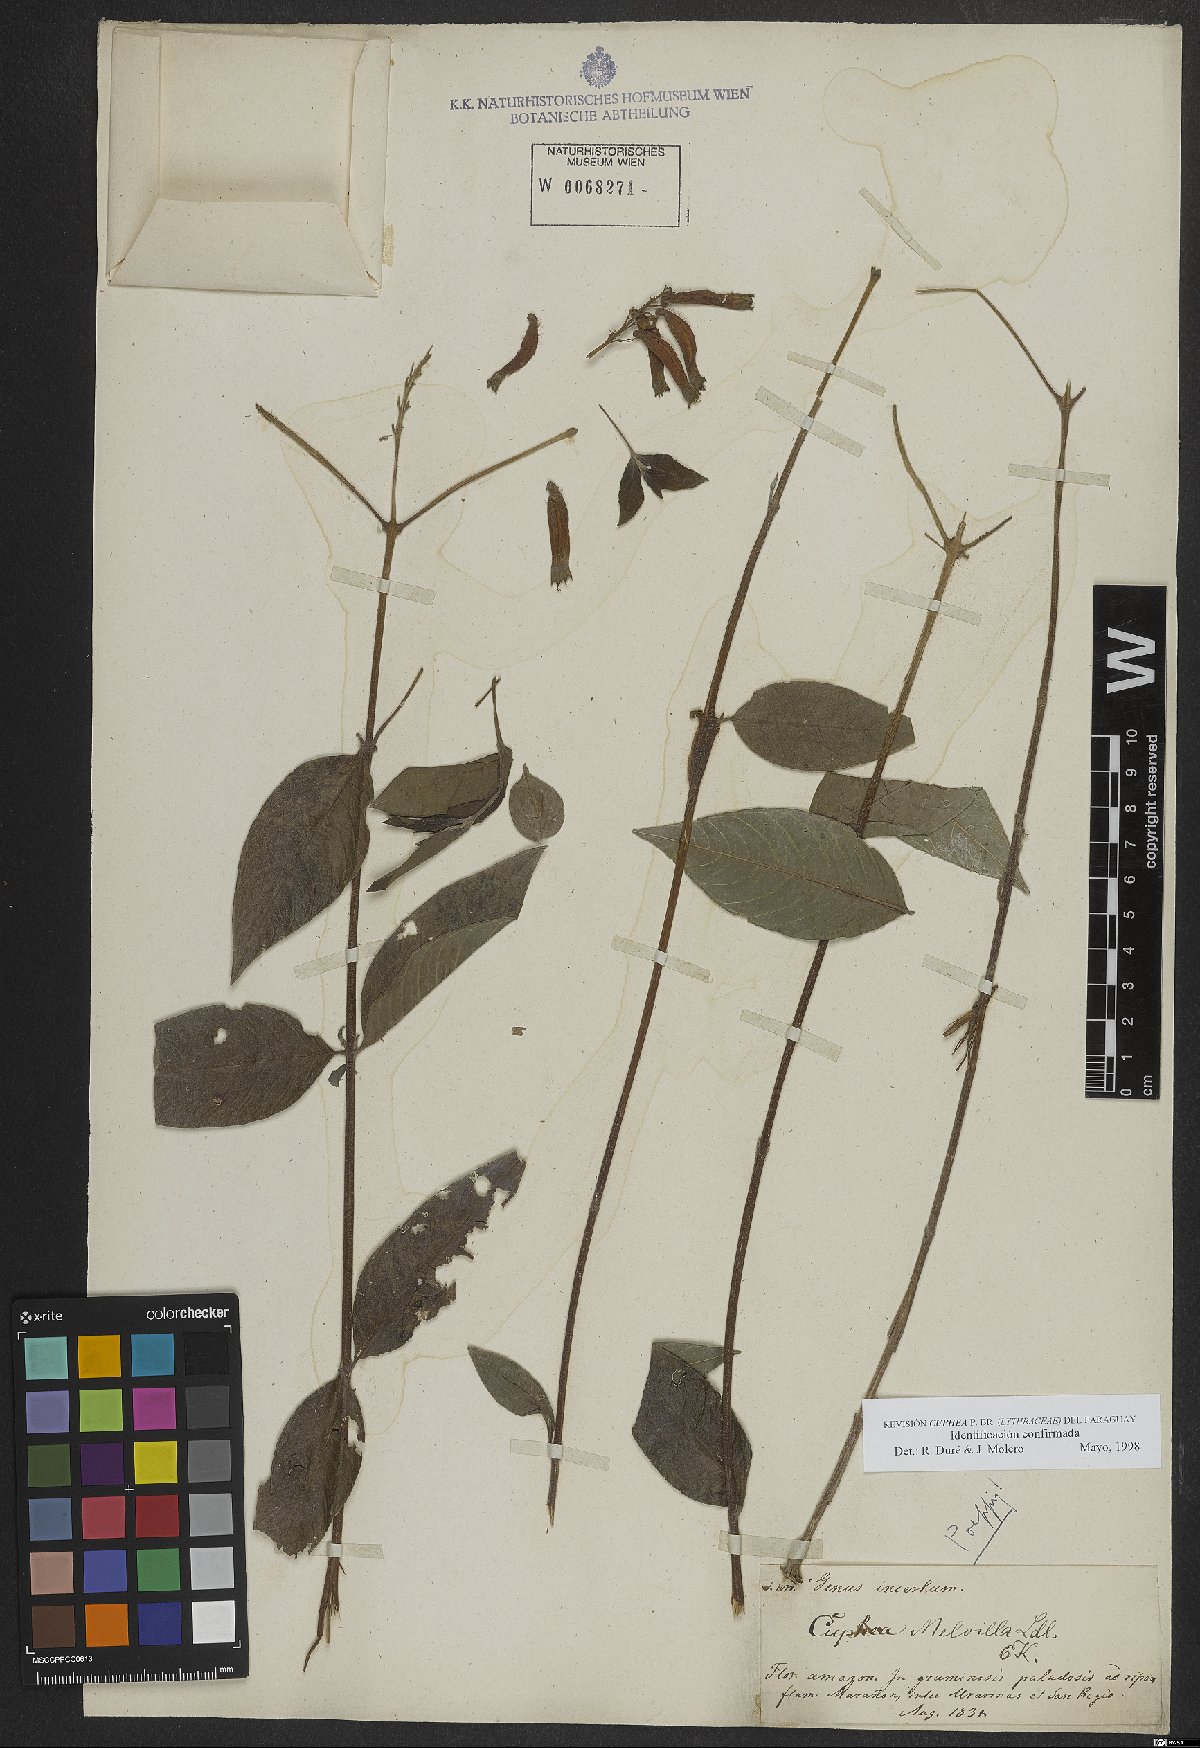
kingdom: Plantae
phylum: Tracheophyta
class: Magnoliopsida
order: Myrtales
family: Lythraceae
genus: Cuphea
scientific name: Cuphea melvilla
